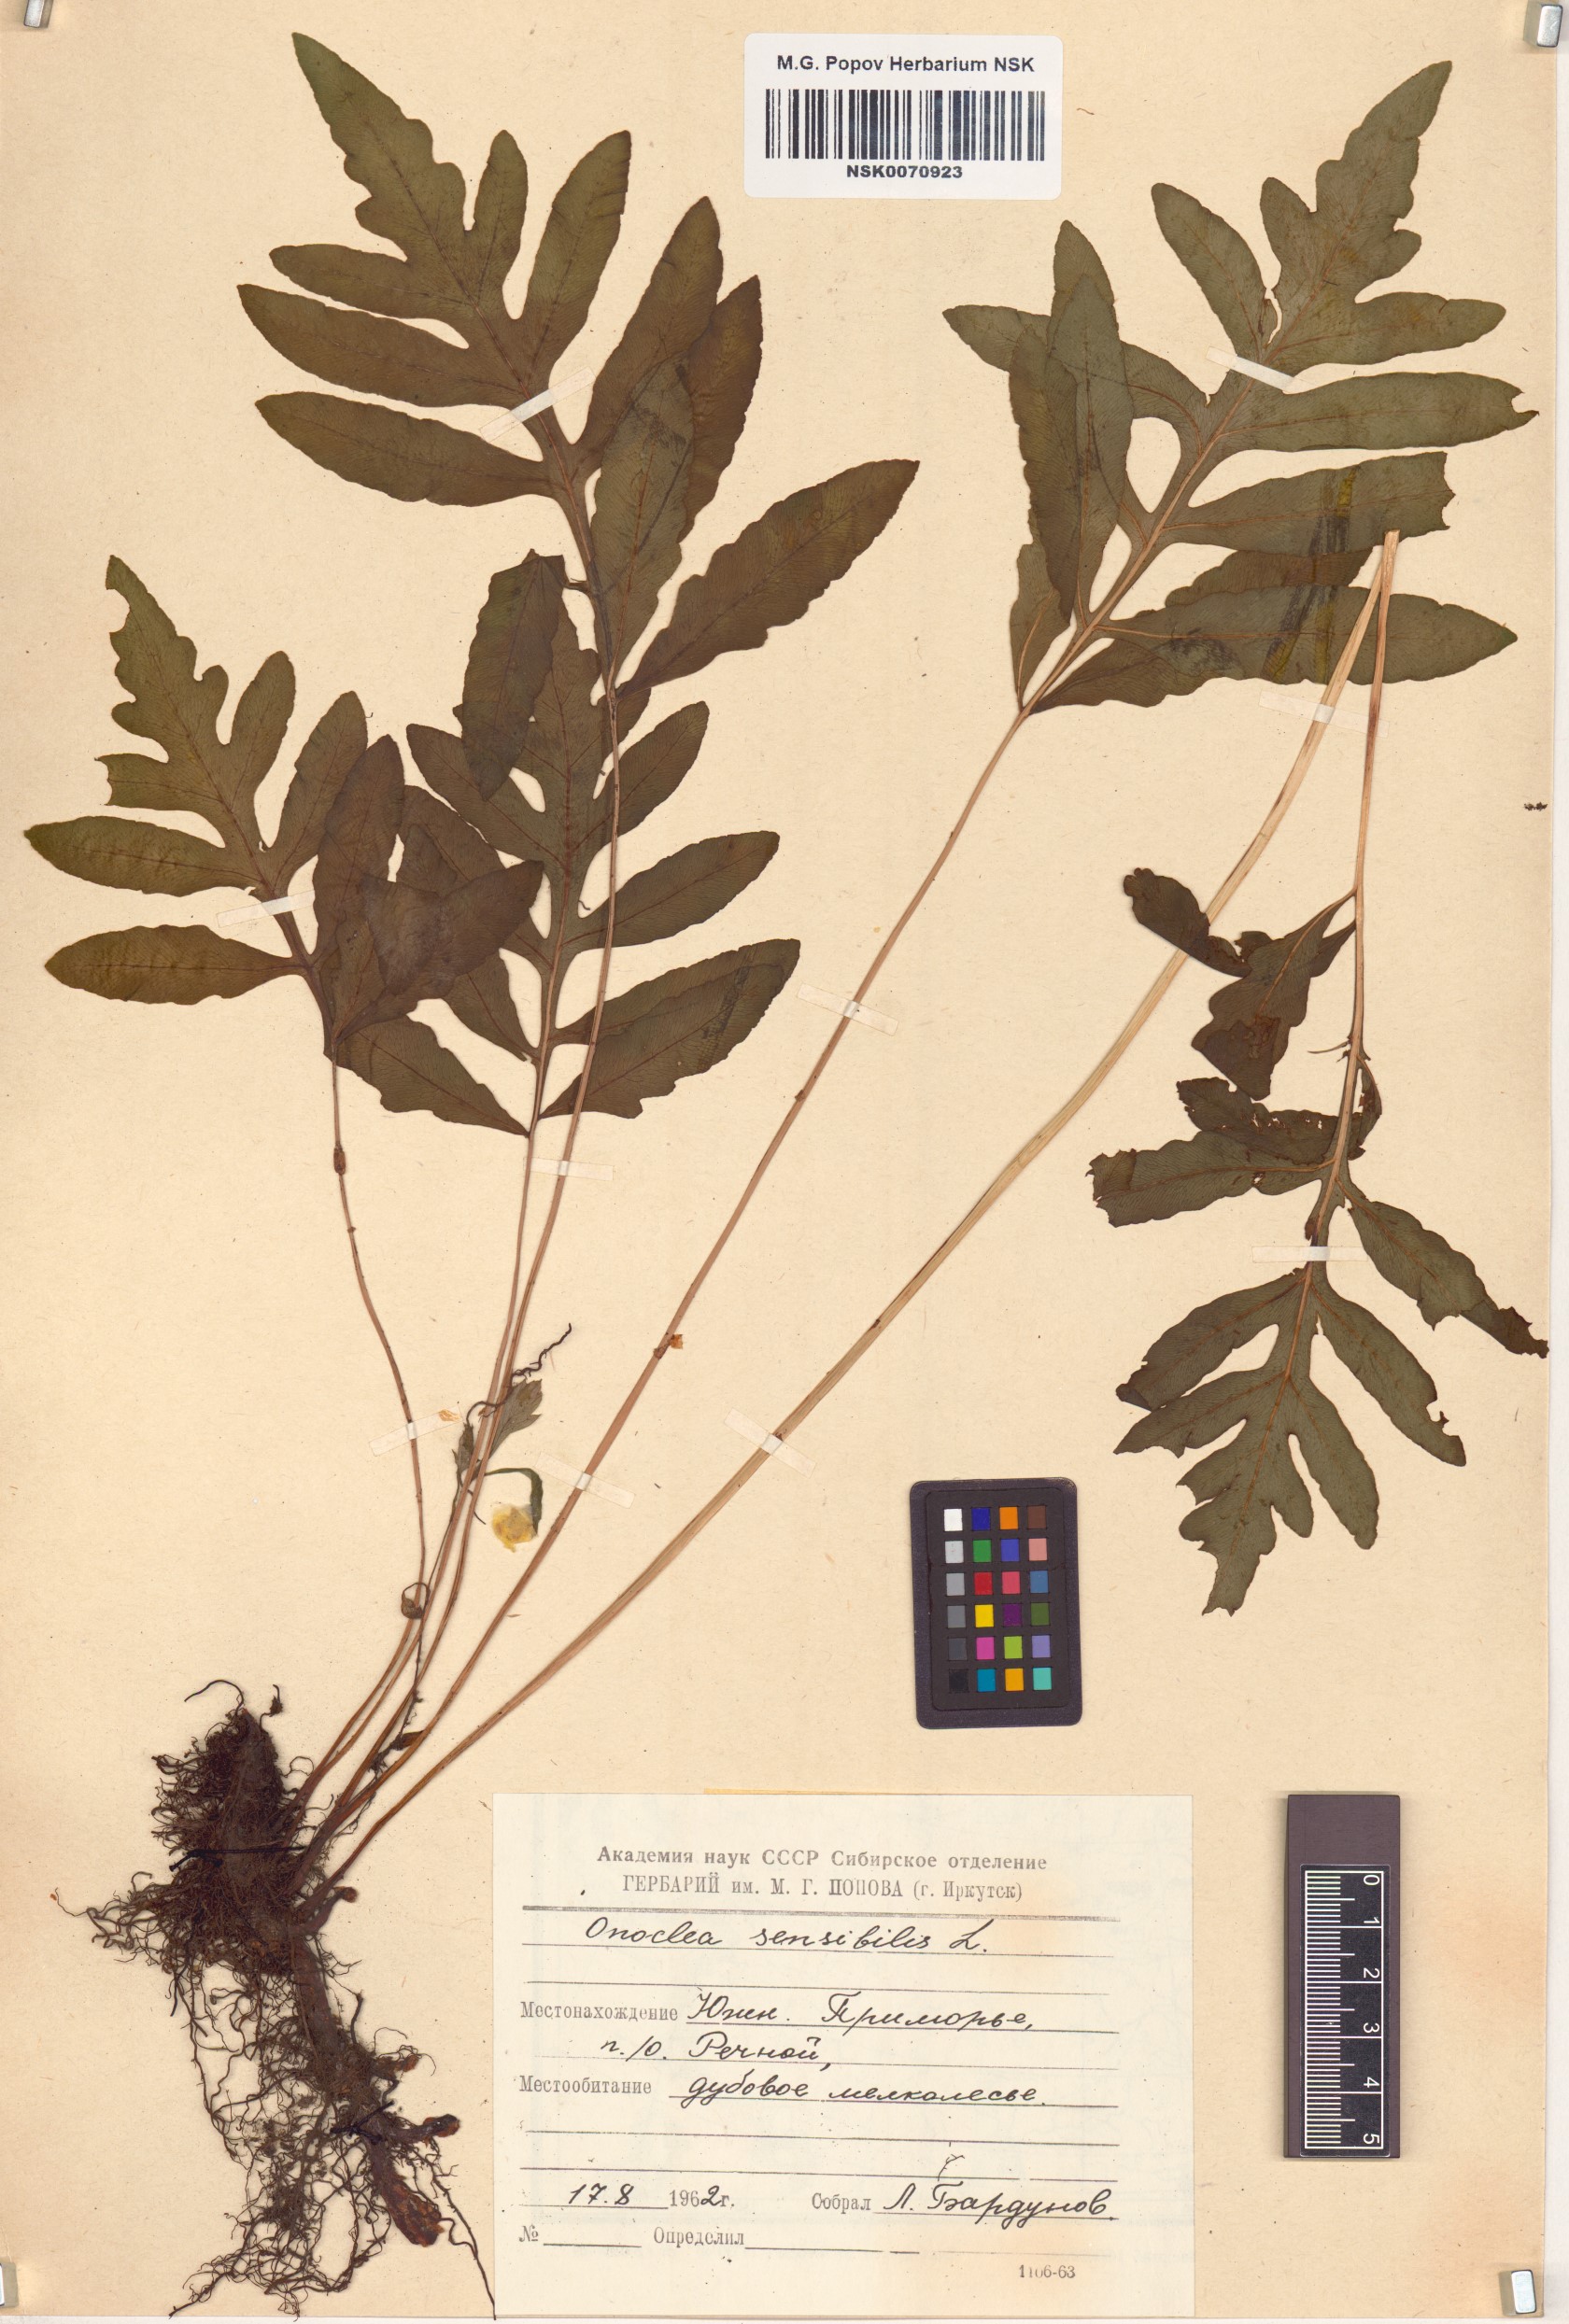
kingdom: Plantae
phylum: Tracheophyta
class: Polypodiopsida
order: Polypodiales
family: Onocleaceae
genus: Onoclea
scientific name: Onoclea sensibilis
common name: Sensitive fern
